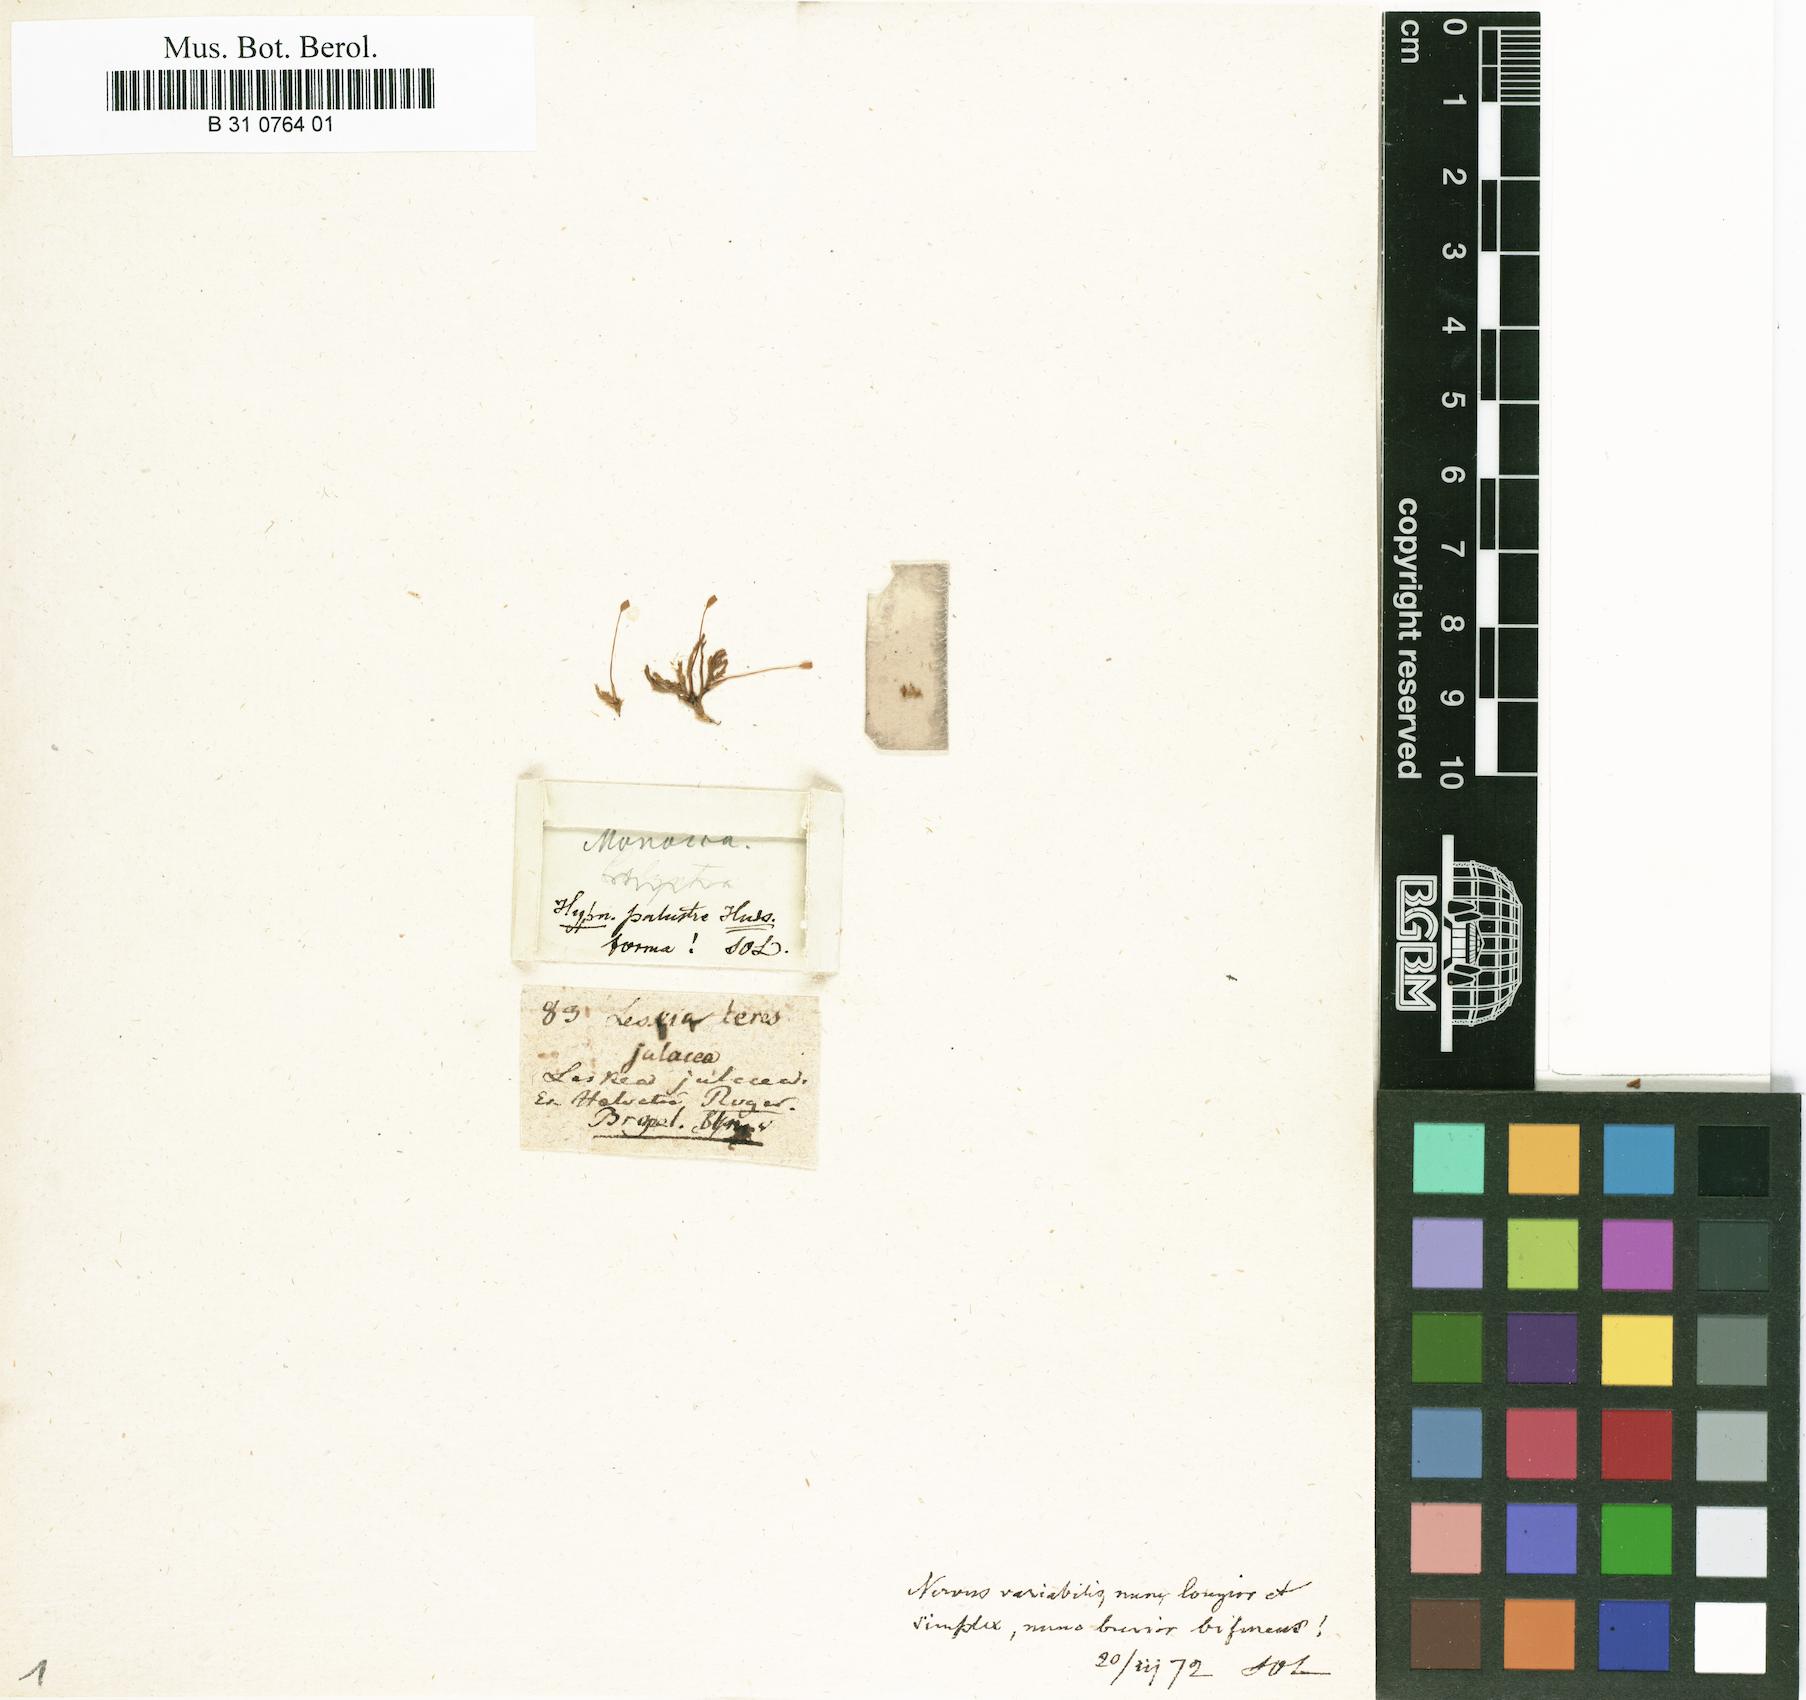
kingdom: Plantae
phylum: Bryophyta
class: Bryopsida
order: Hypnales
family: Amblystegiaceae
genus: Hygrohypnum
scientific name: Hygrohypnum luridum
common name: Drab brook moss
